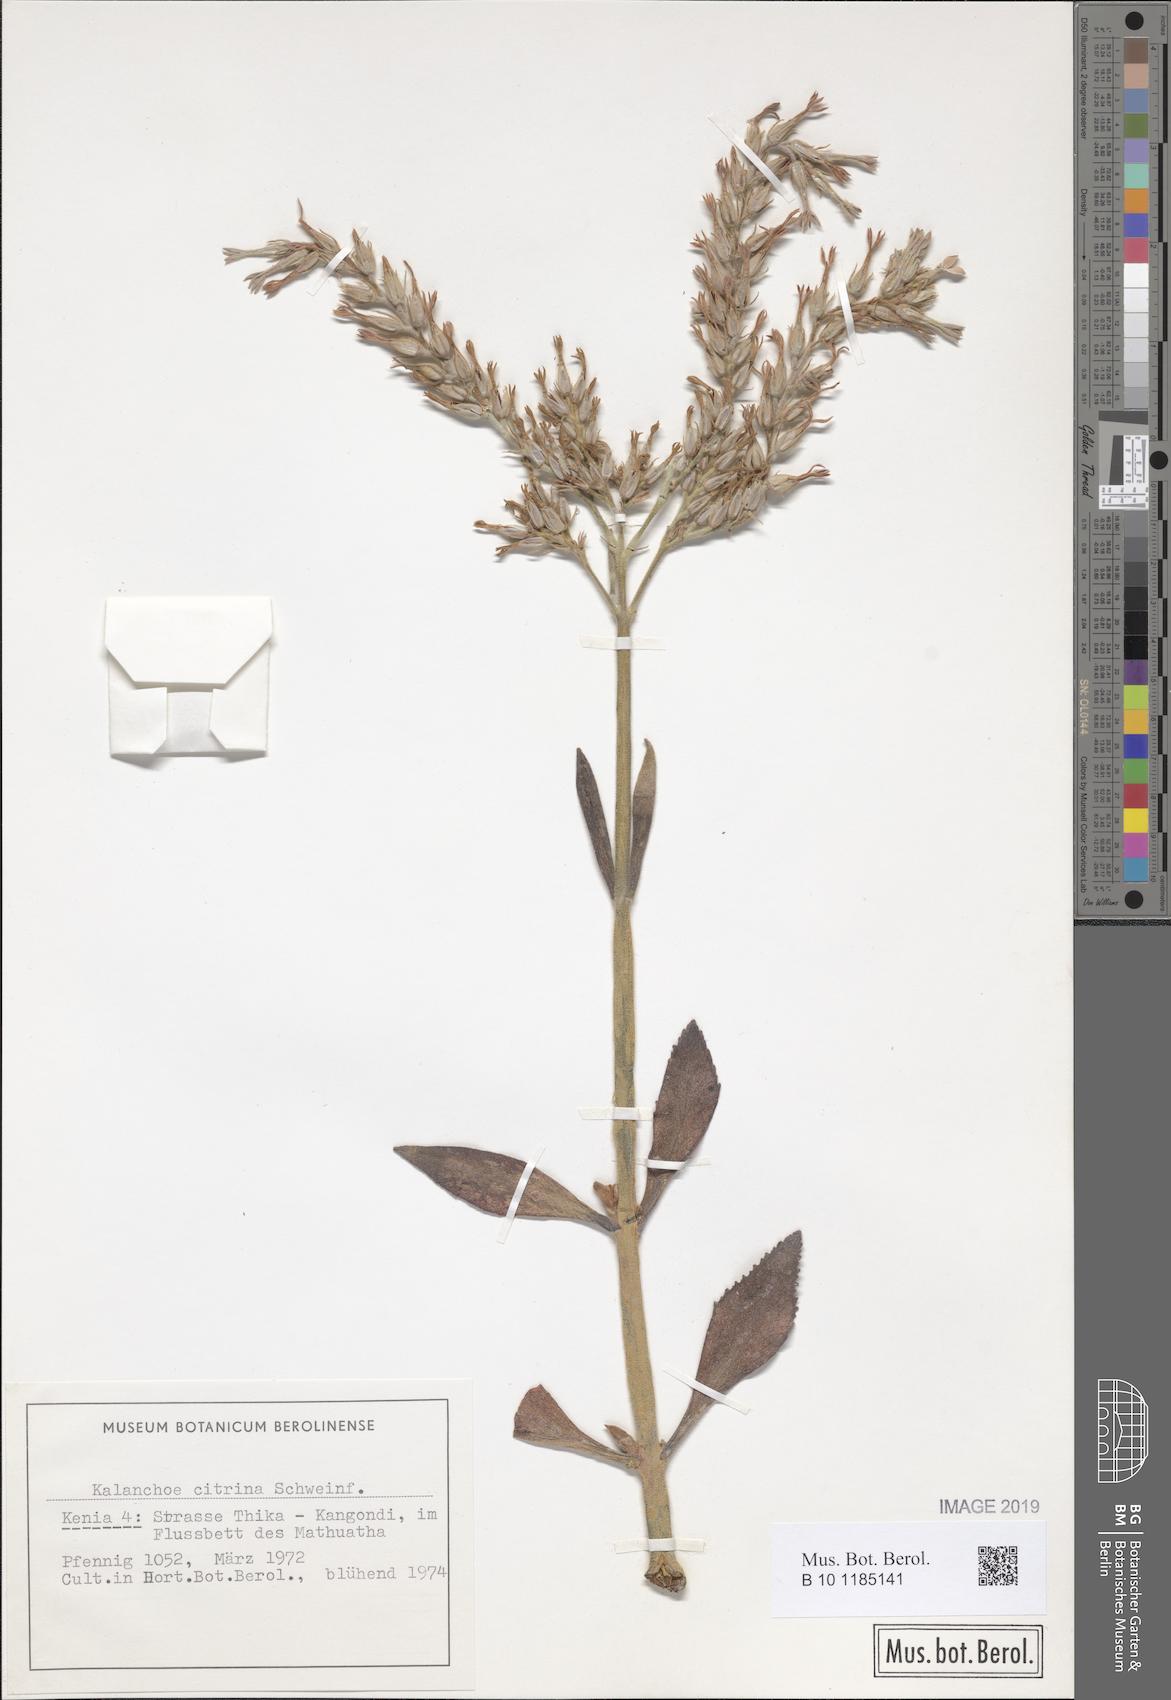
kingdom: Plantae
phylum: Tracheophyta
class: Magnoliopsida
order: Saxifragales
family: Crassulaceae
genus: Kalanchoe
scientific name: Kalanchoe citrina
